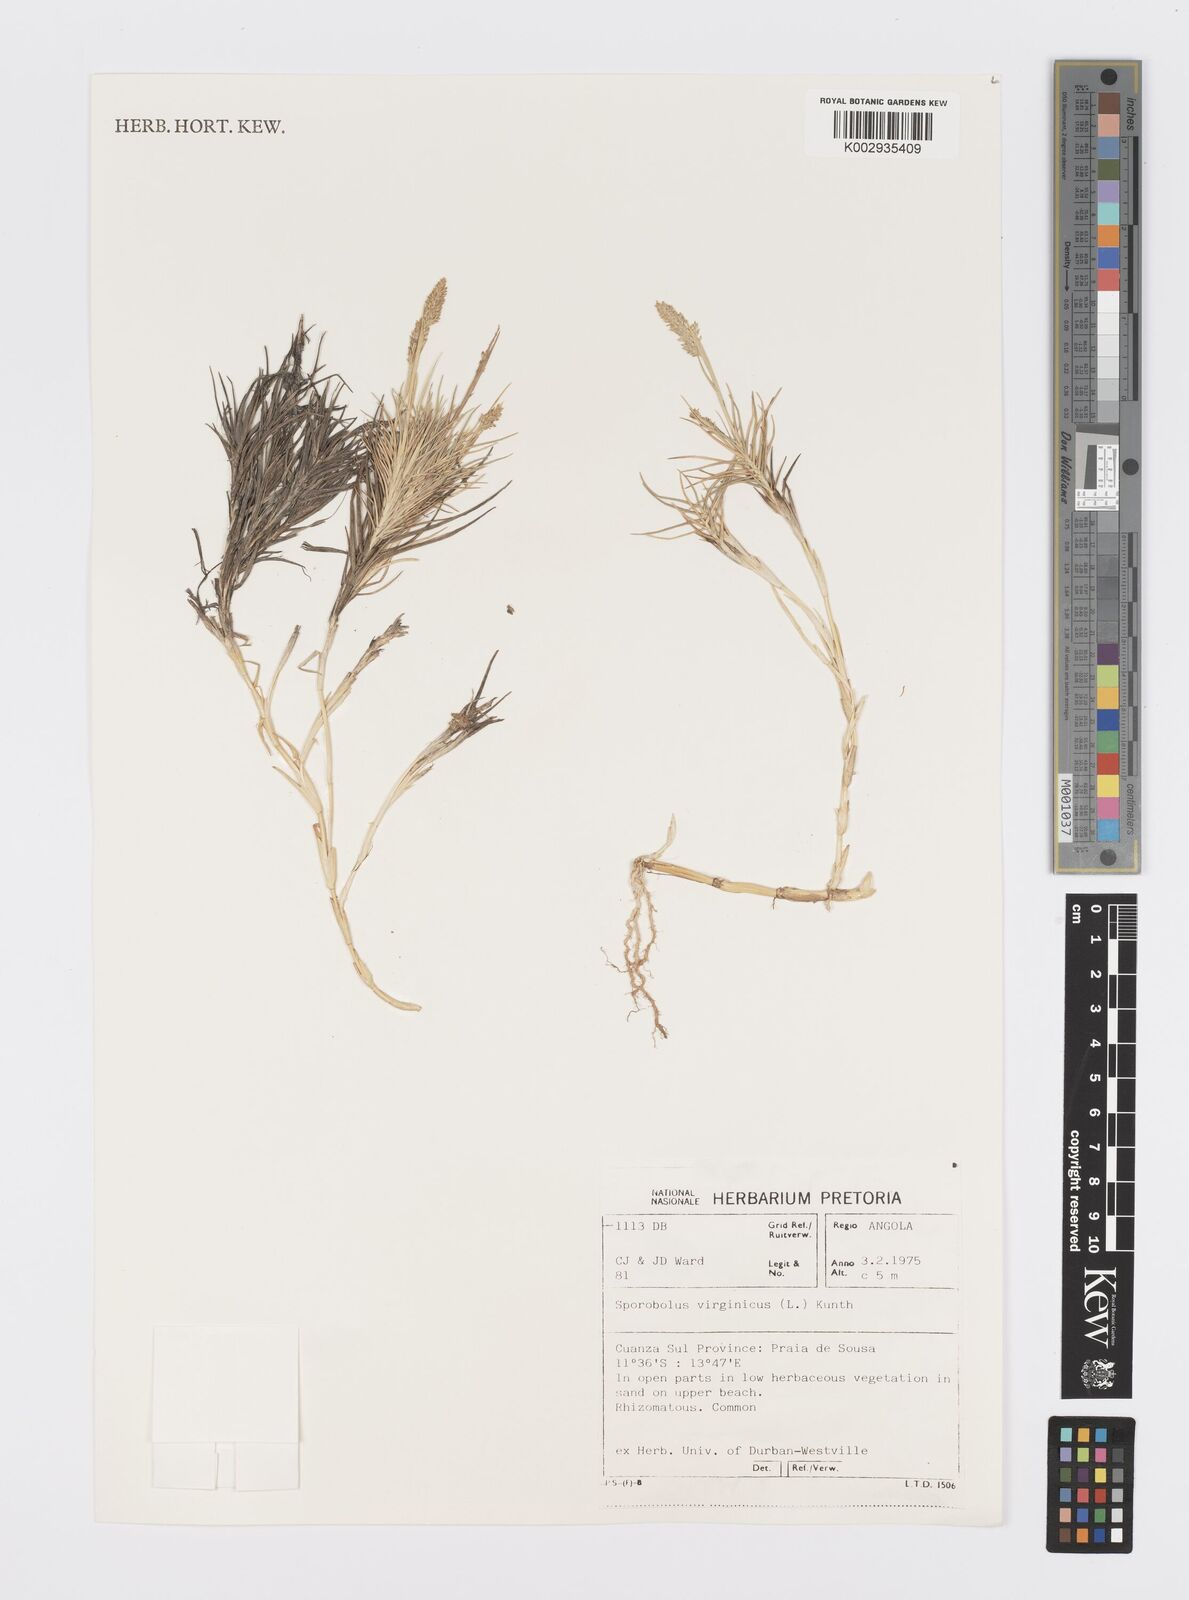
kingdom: Plantae
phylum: Tracheophyta
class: Liliopsida
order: Poales
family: Poaceae
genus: Sporobolus
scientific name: Sporobolus virginicus
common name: Beach dropseed
